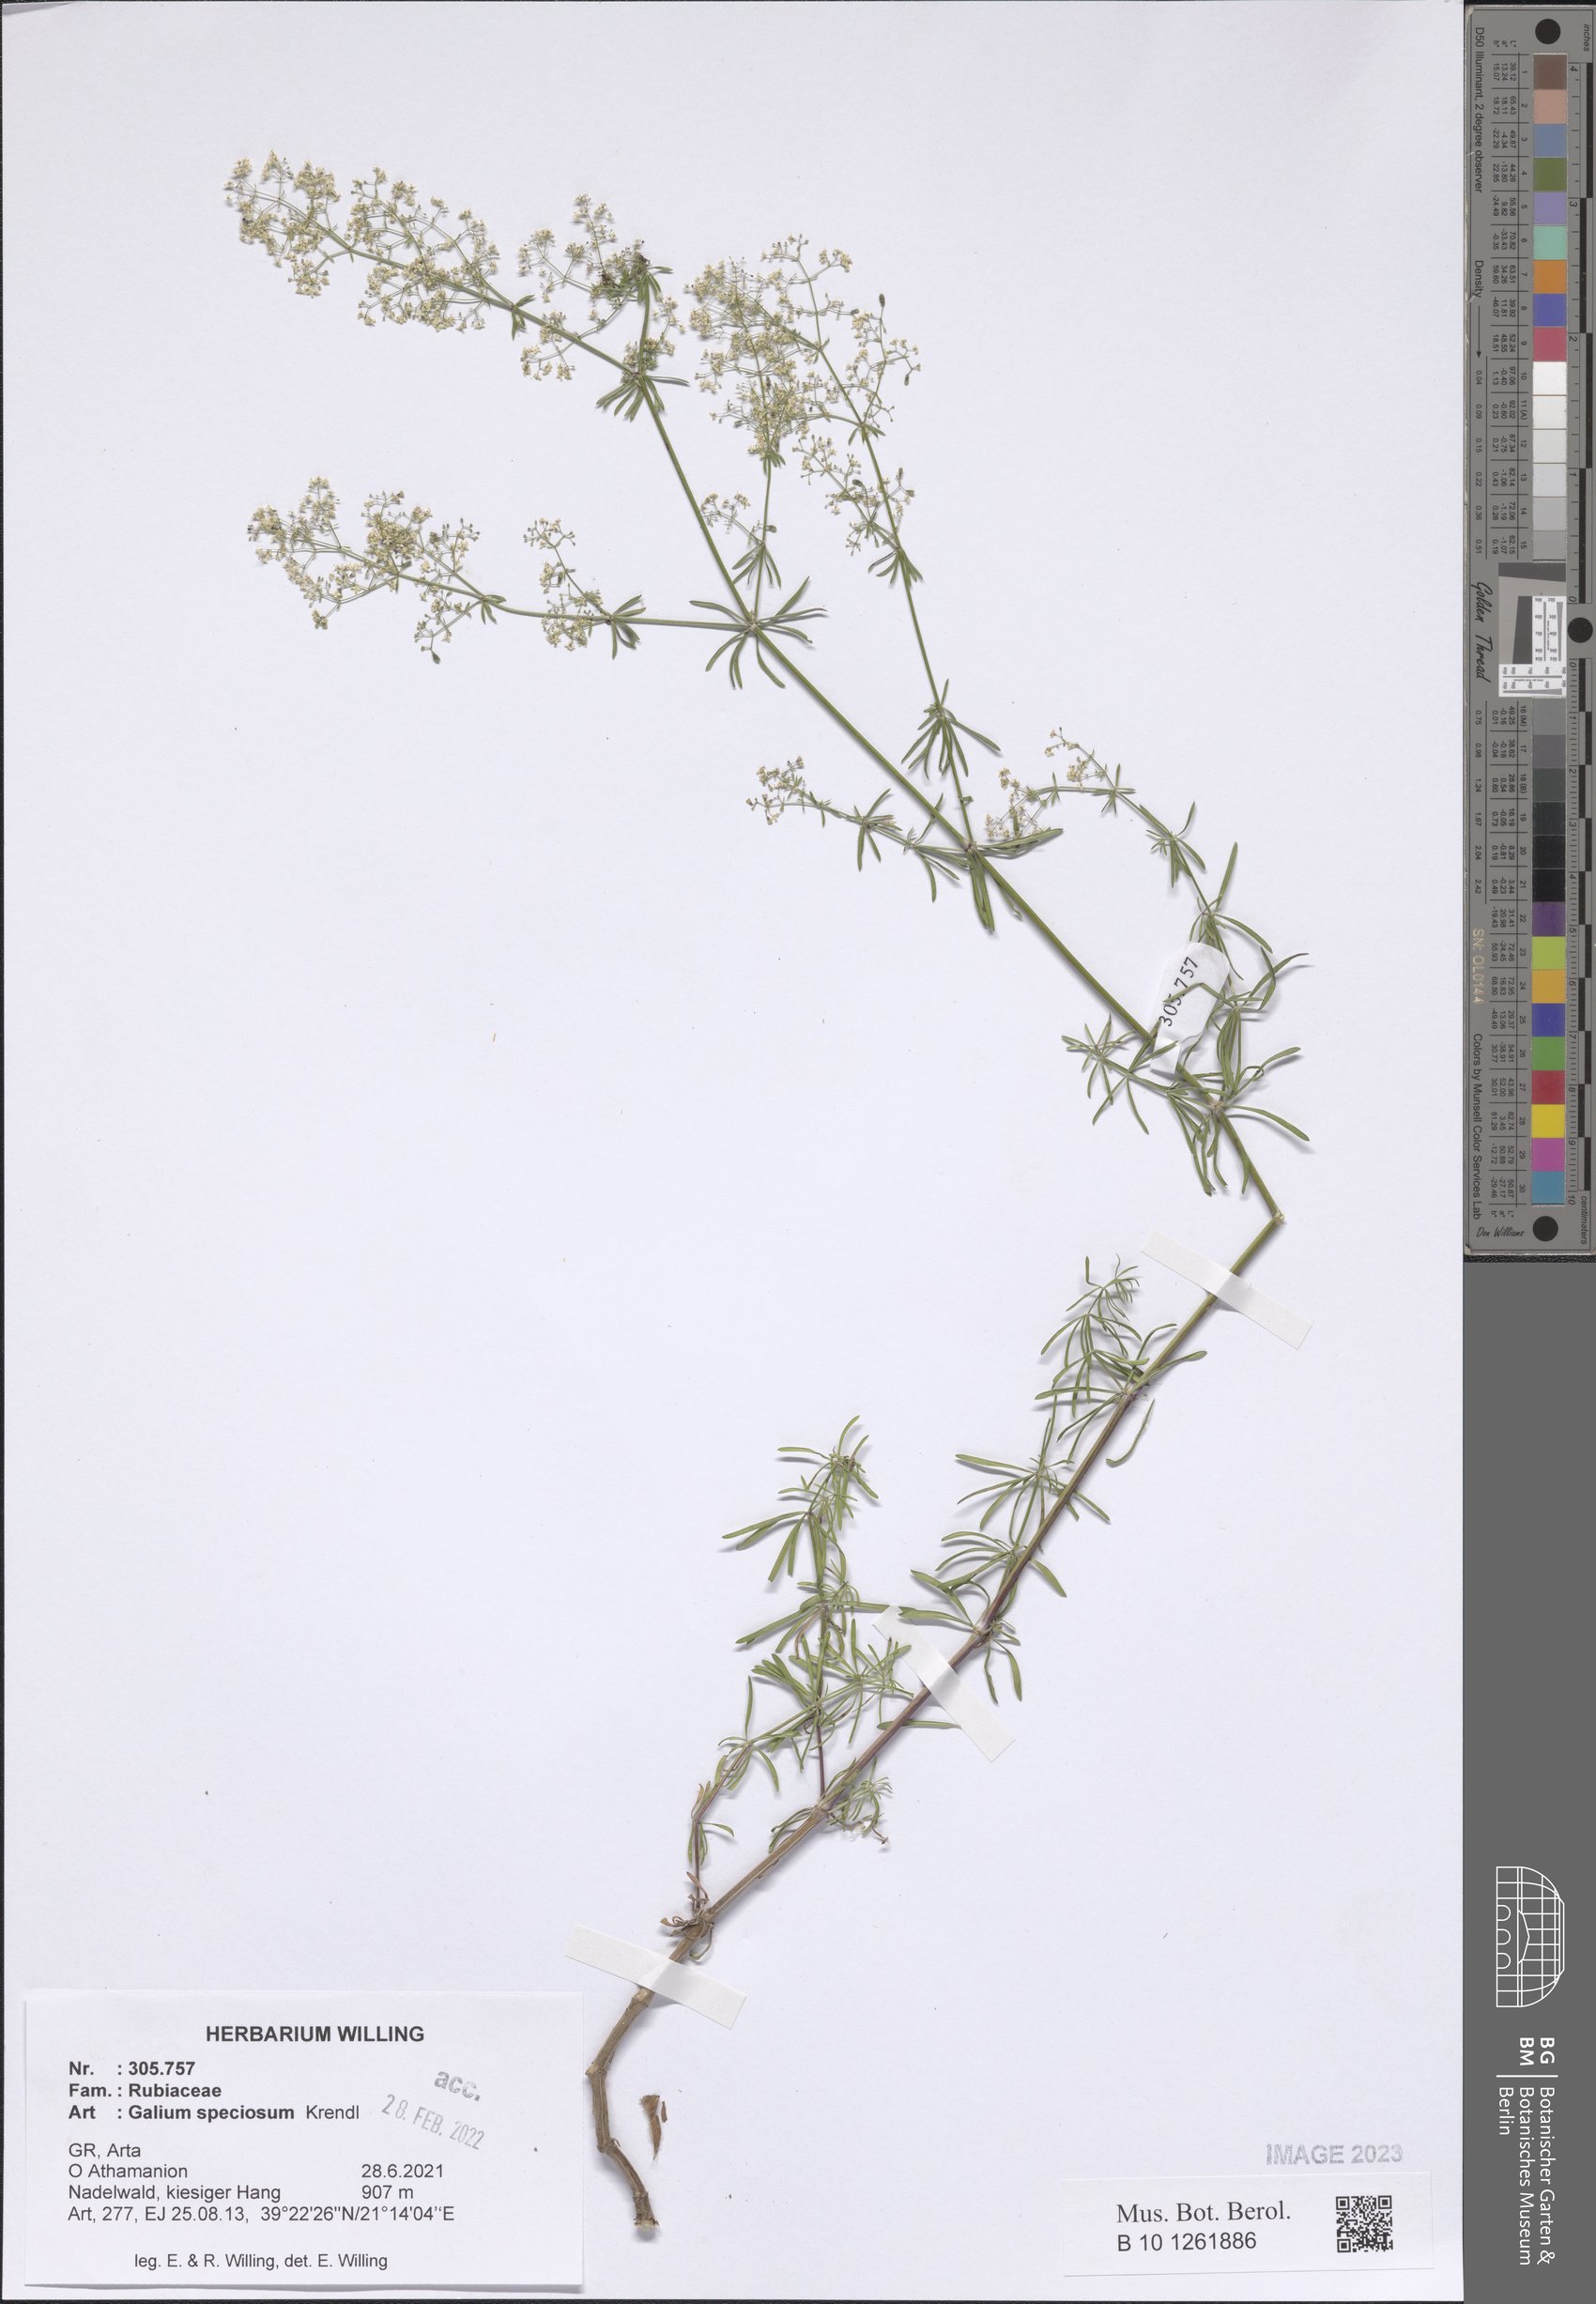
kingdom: Plantae
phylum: Tracheophyta
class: Magnoliopsida
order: Gentianales
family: Rubiaceae
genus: Galium
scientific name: Galium speciosum
